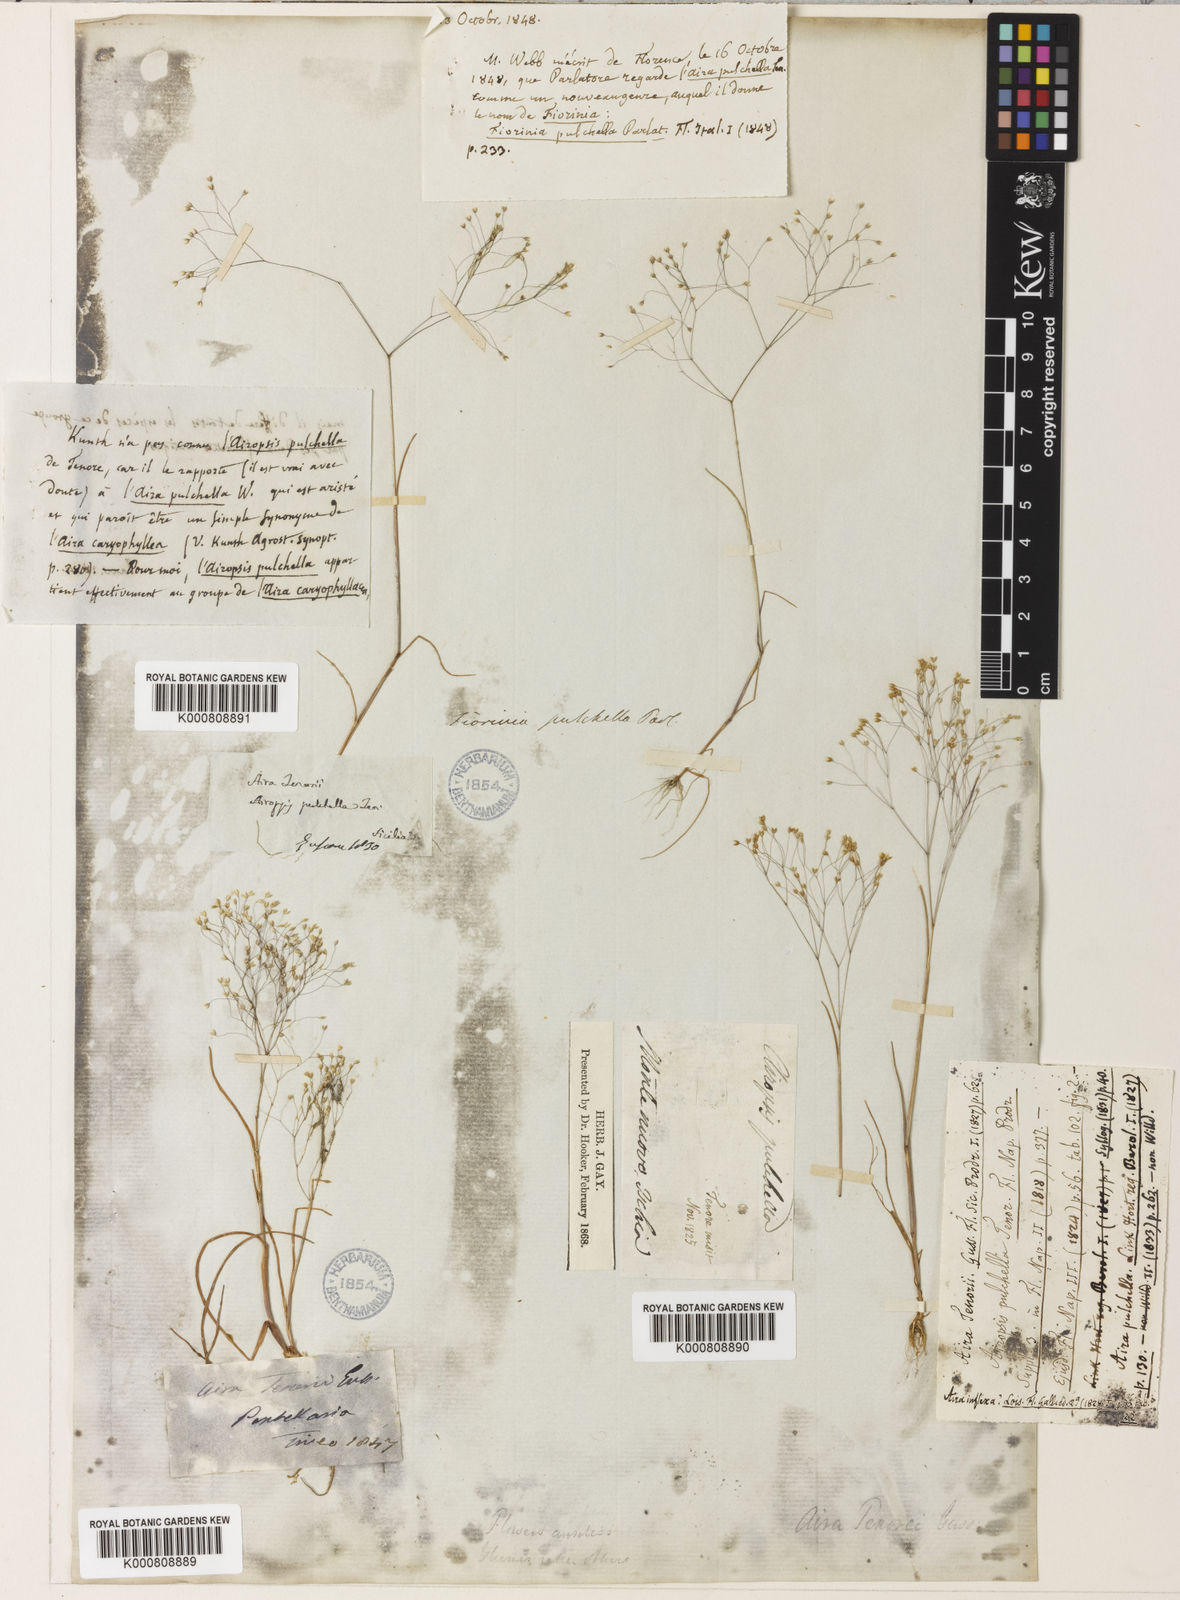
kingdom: Plantae
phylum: Tracheophyta
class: Liliopsida
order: Poales
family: Poaceae
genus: Aira
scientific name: Aira tenorei
